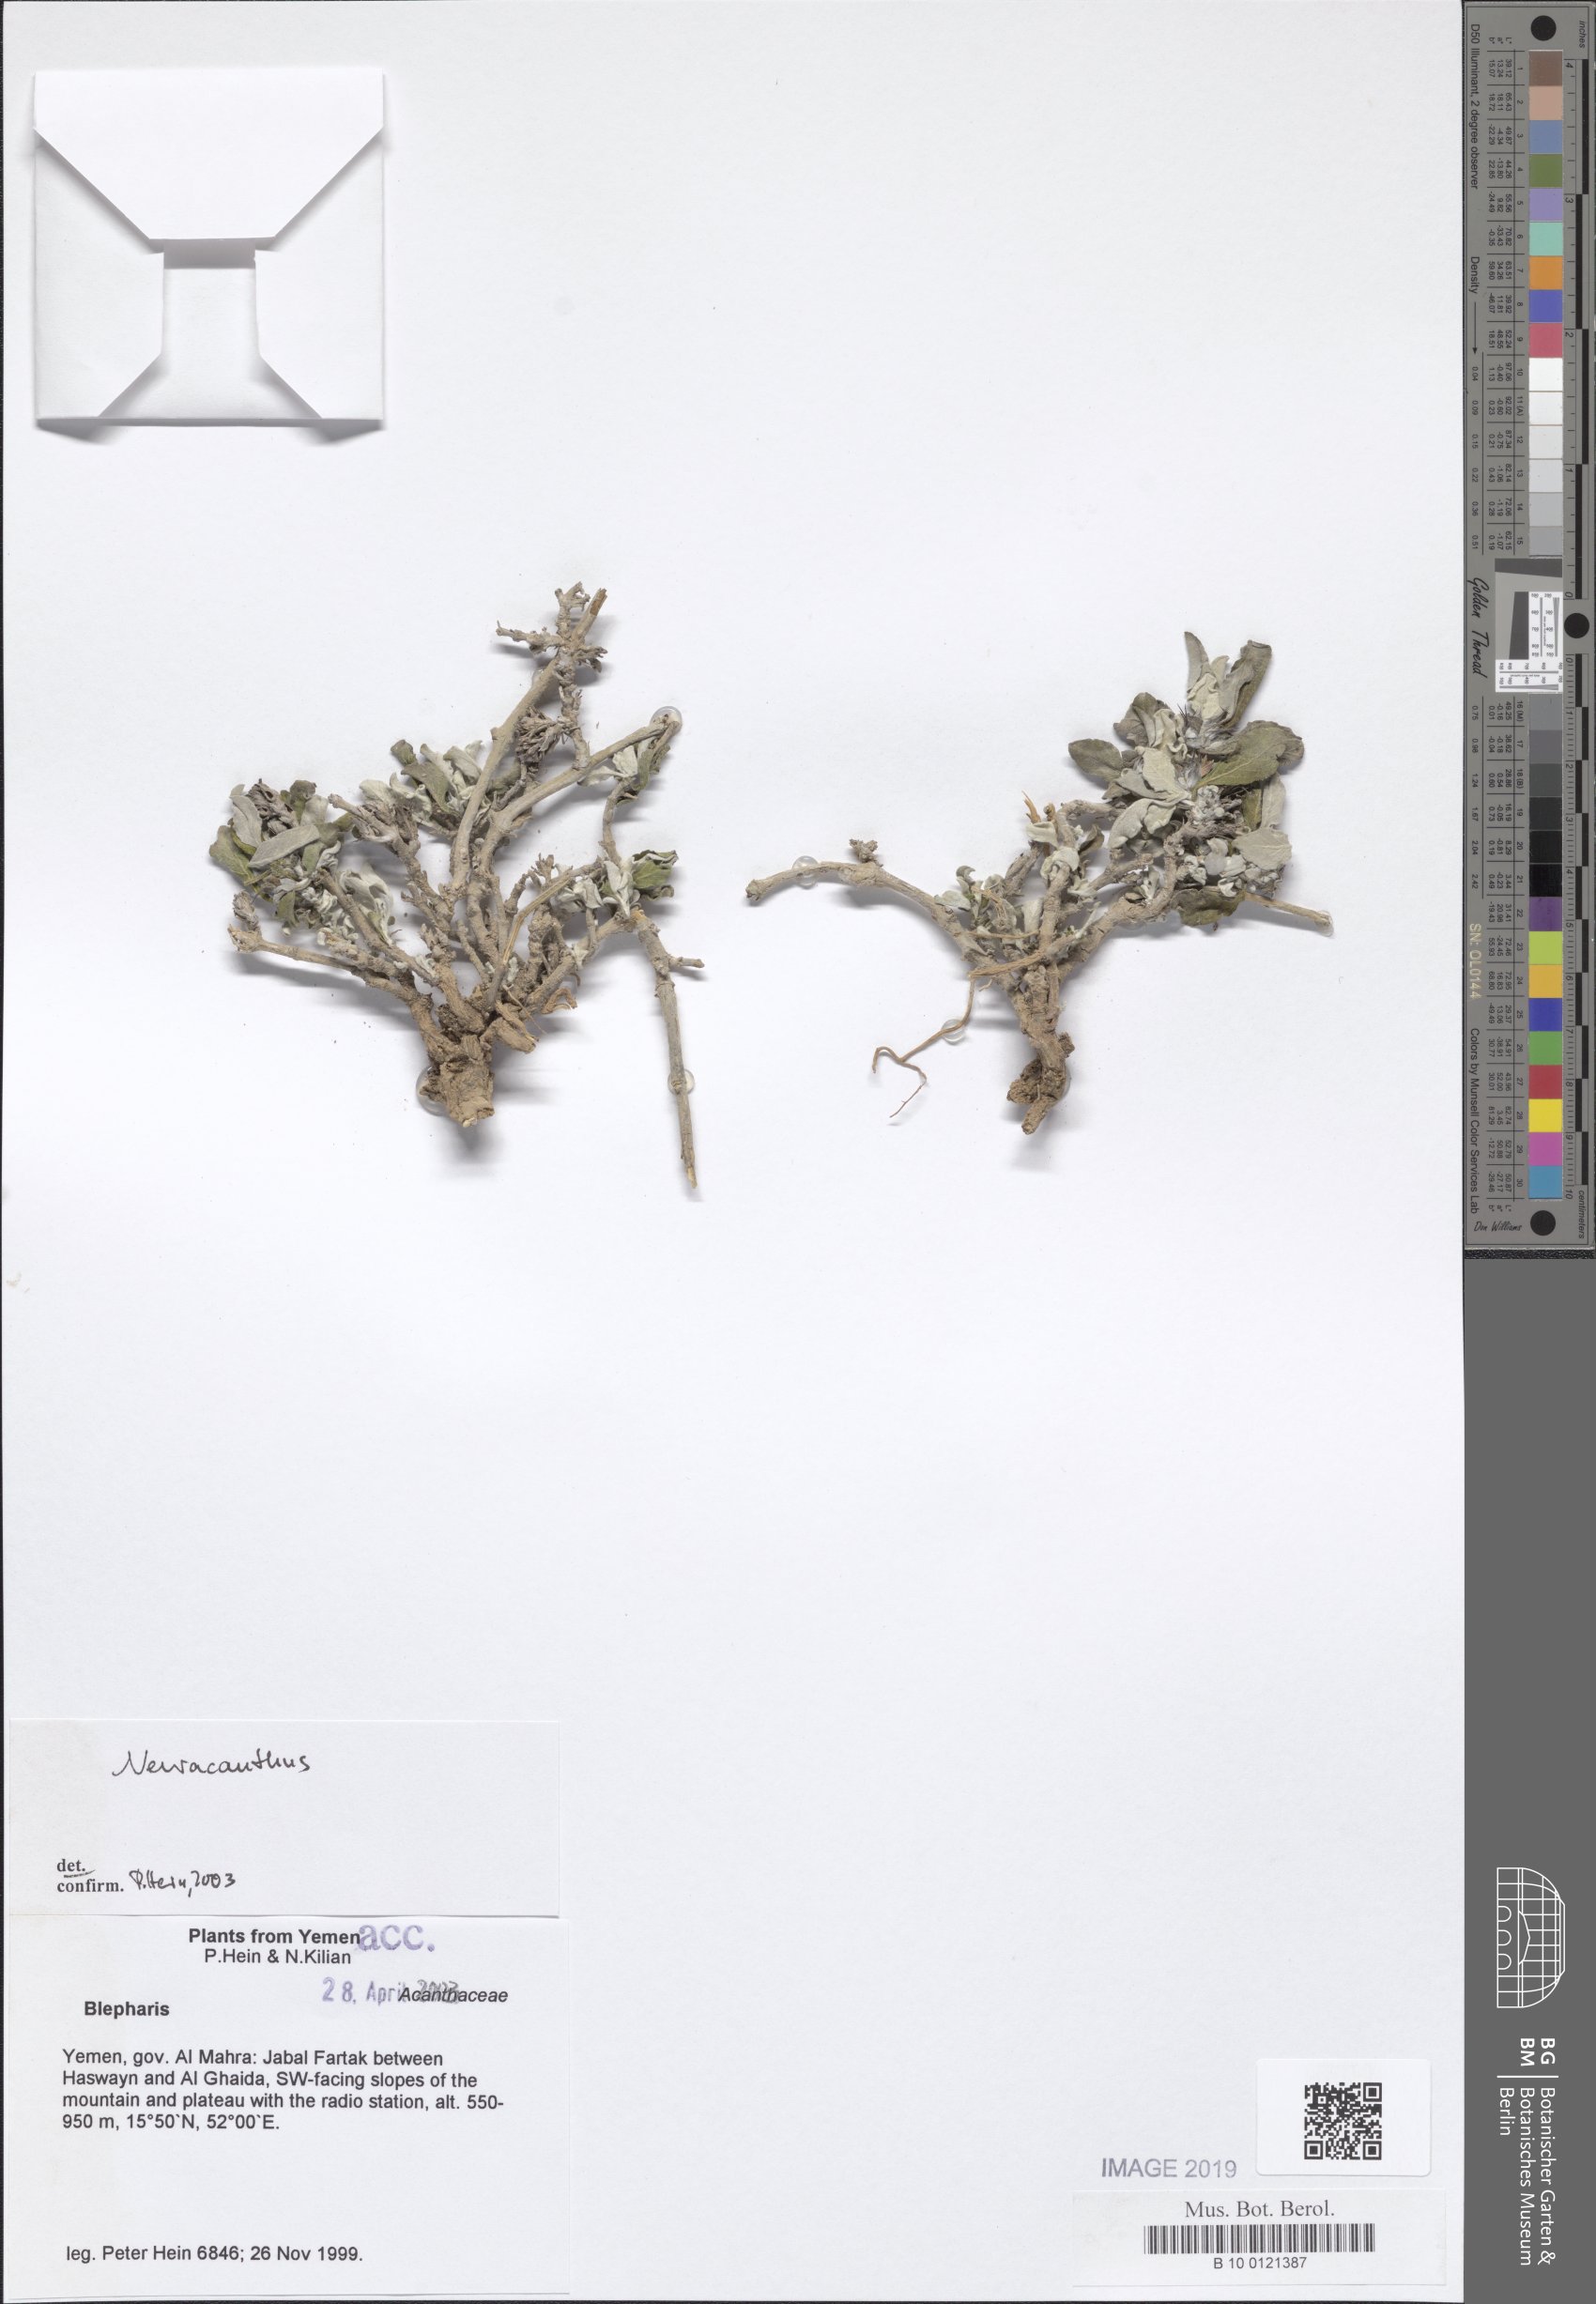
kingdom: Plantae
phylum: Tracheophyta
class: Magnoliopsida
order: Lamiales
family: Acanthaceae
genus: Neuracanthus
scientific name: Neuracanthus
